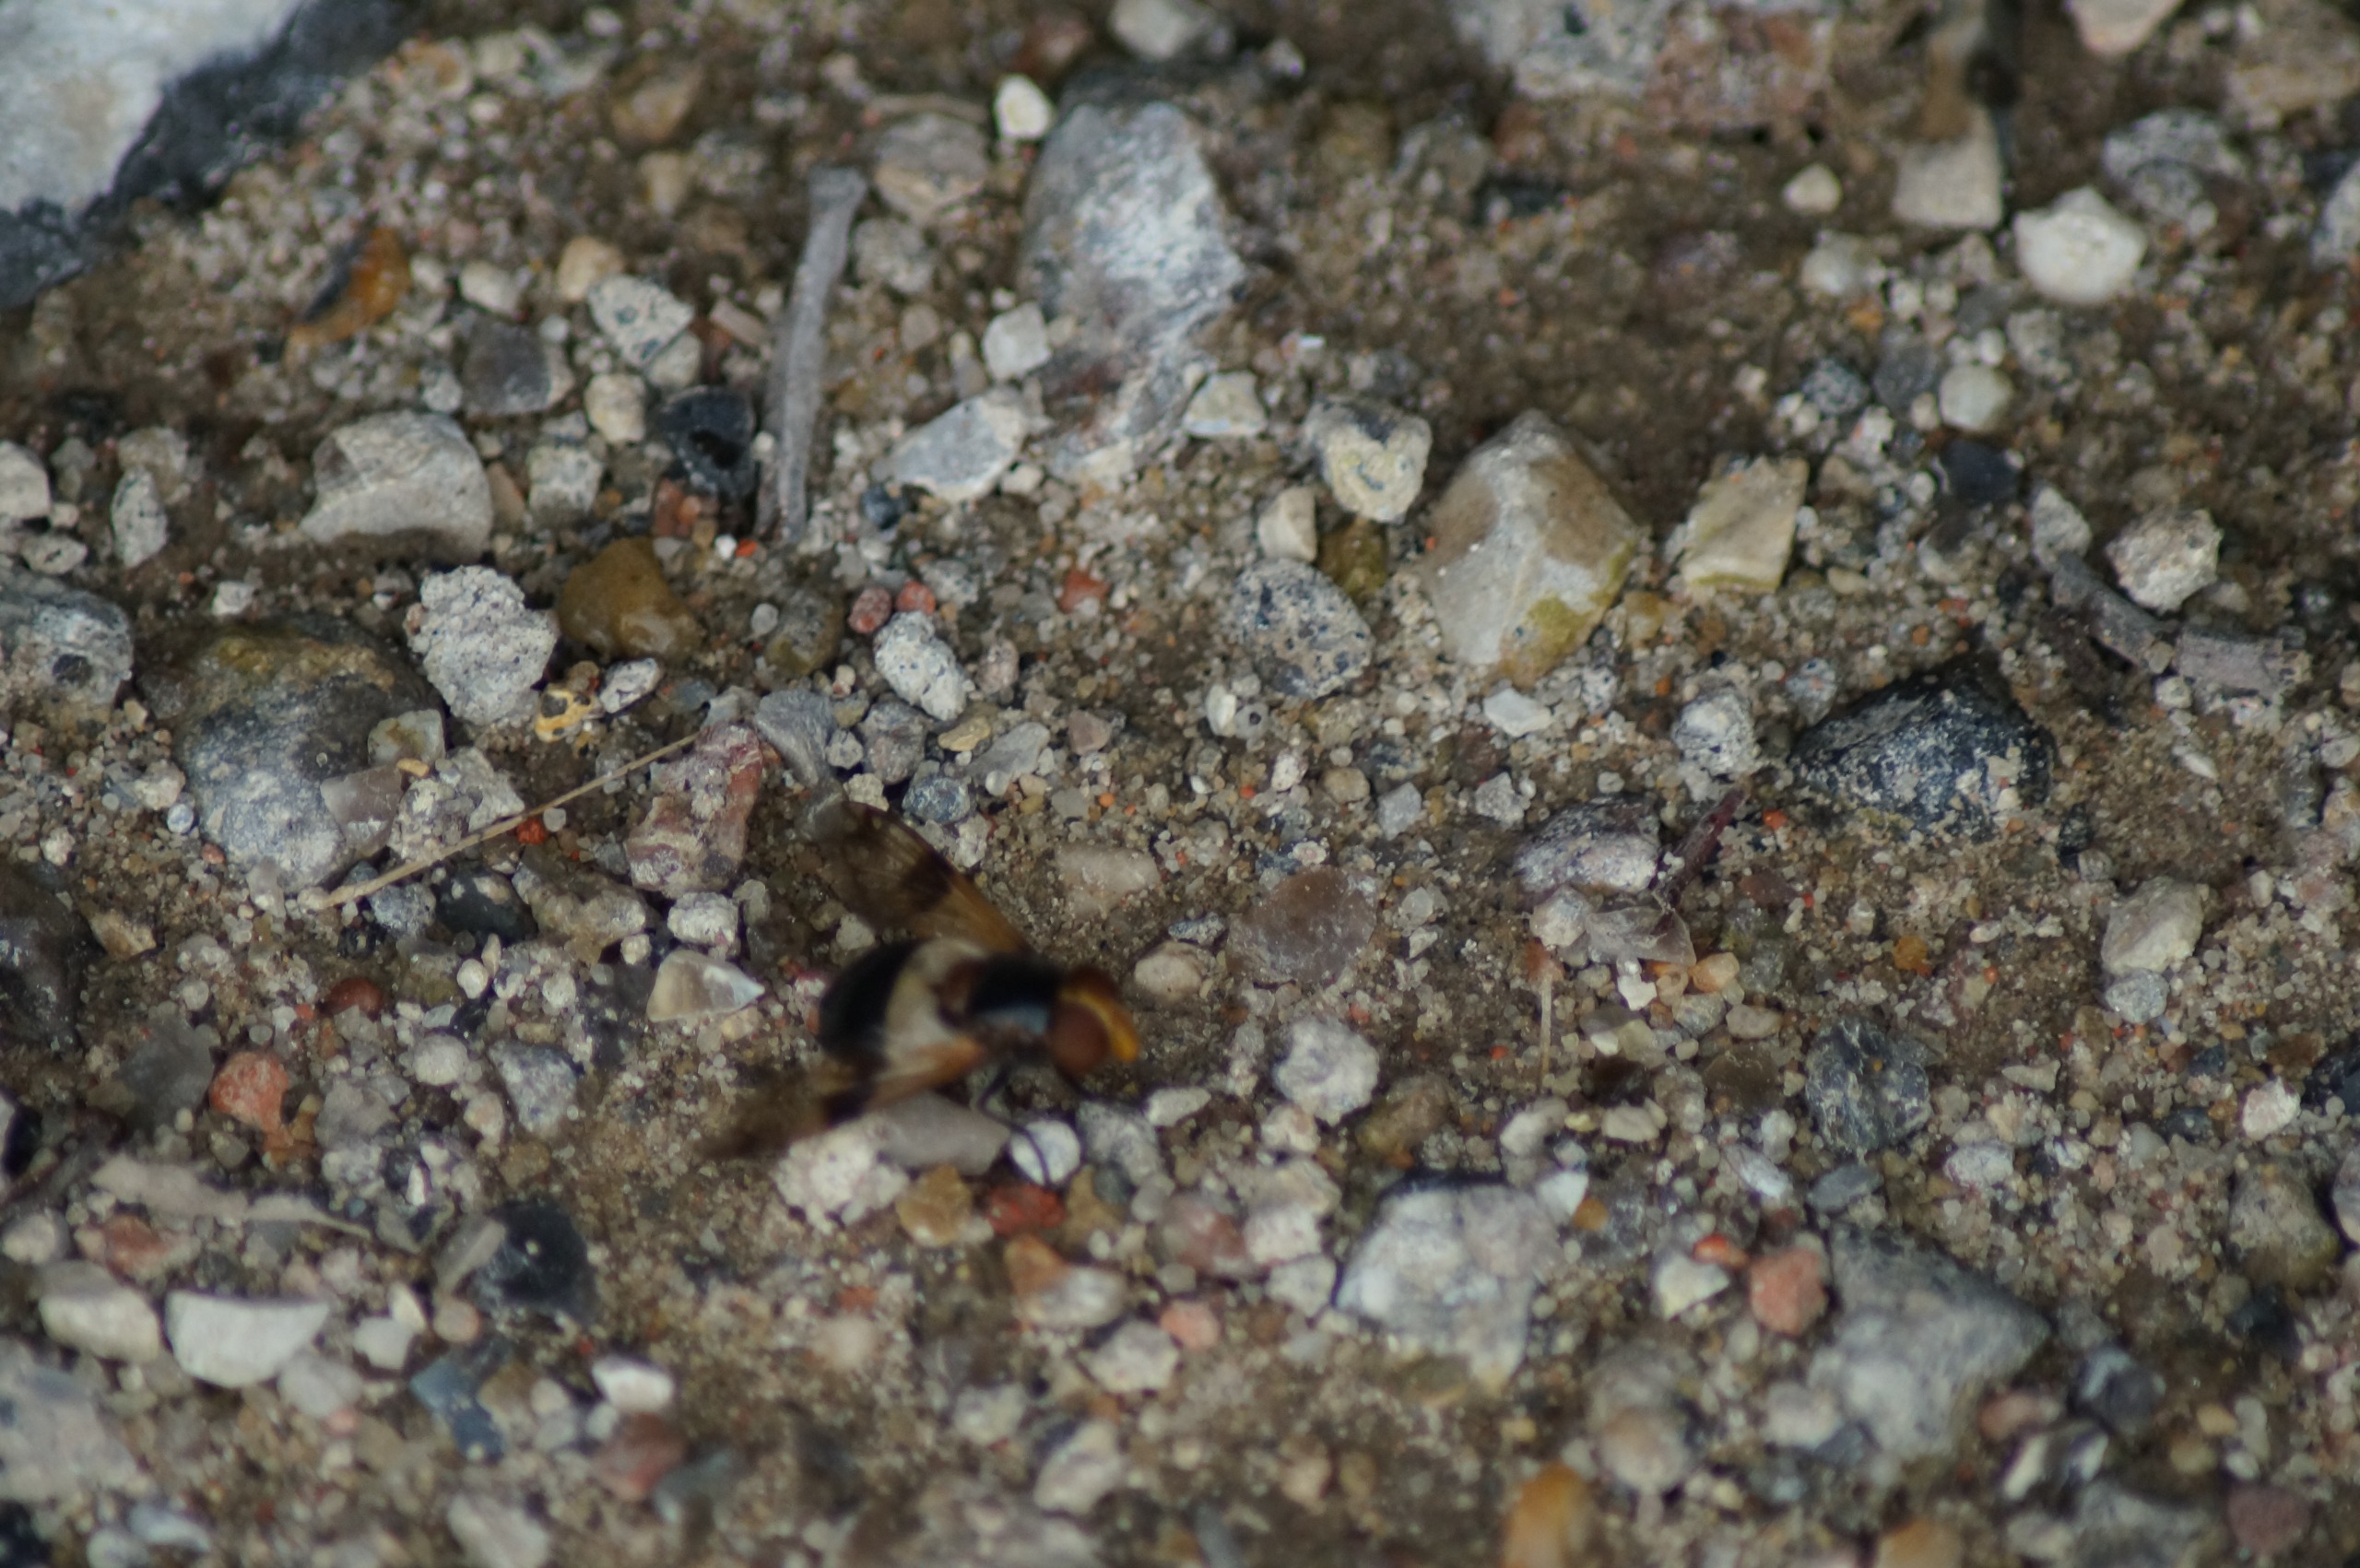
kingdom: Animalia
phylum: Arthropoda
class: Insecta
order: Diptera
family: Syrphidae
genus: Volucella
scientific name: Volucella pellucens
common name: Hvidbåndet humlesvirreflue
